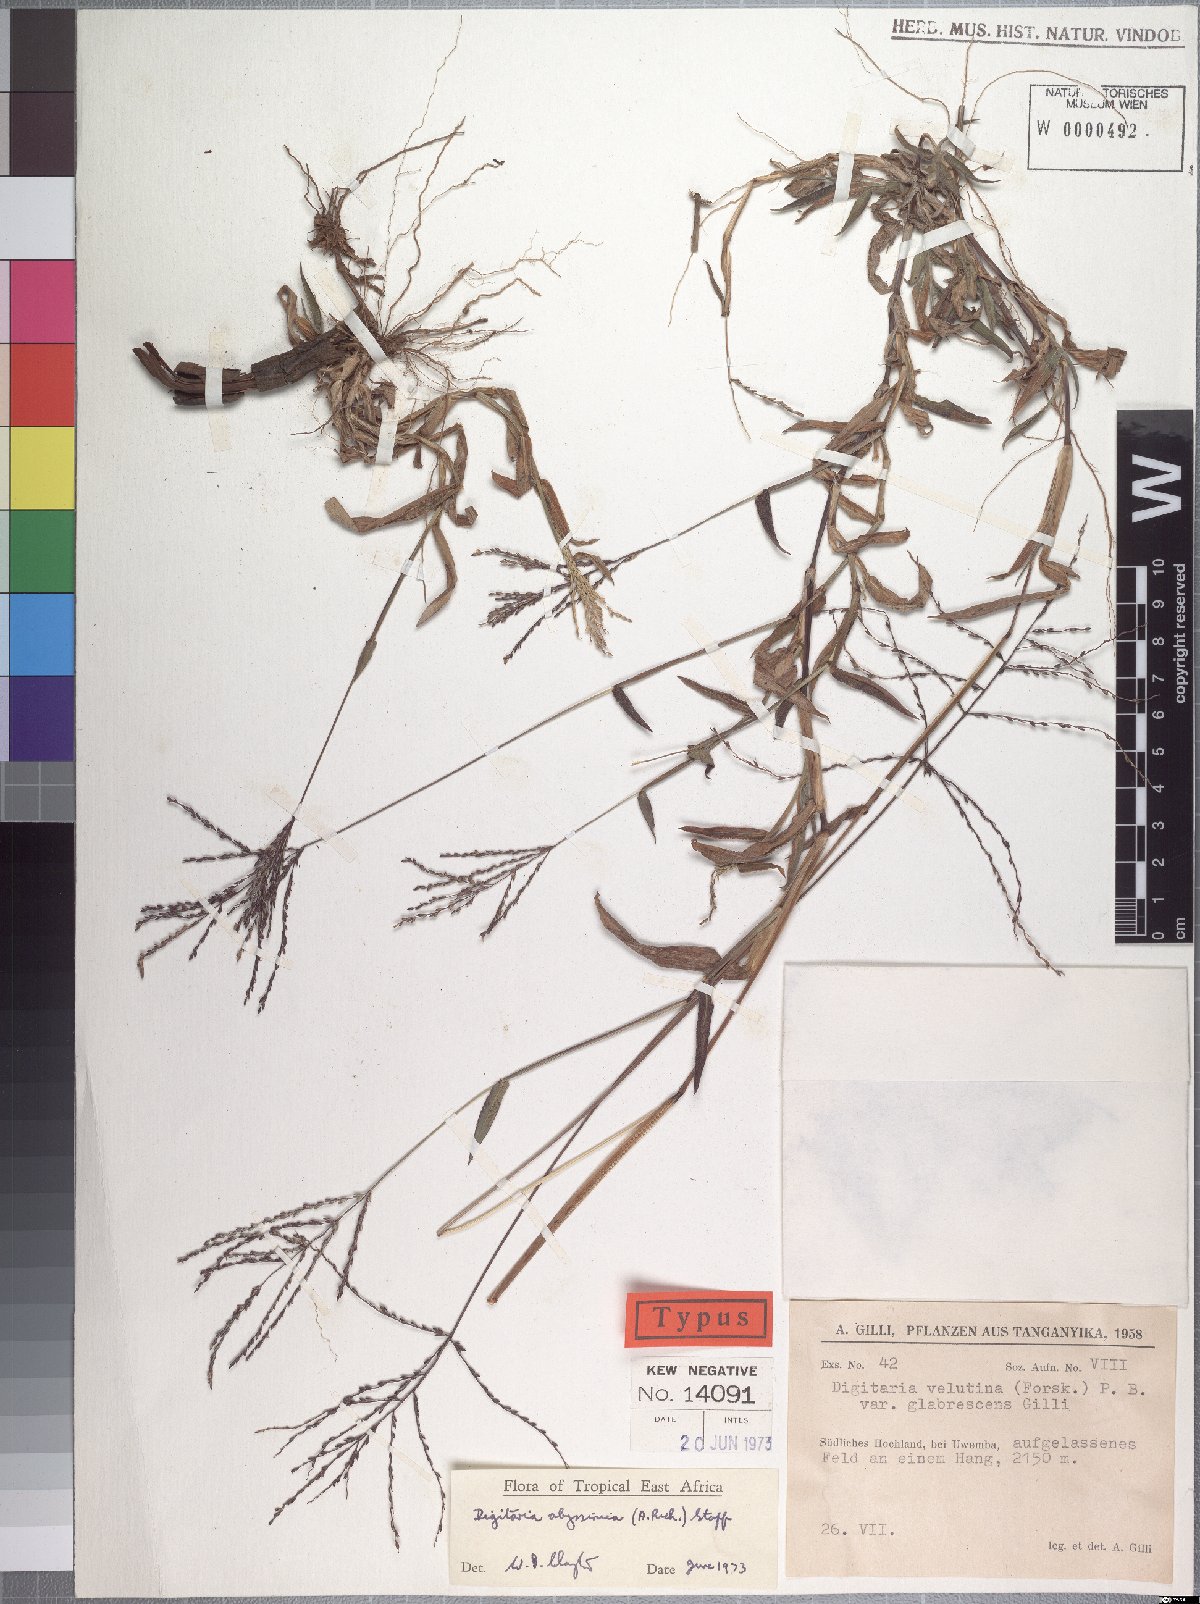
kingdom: Plantae
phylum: Tracheophyta
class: Liliopsida
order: Poales
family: Poaceae
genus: Digitaria
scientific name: Digitaria abyssinica
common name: African couchgrass
